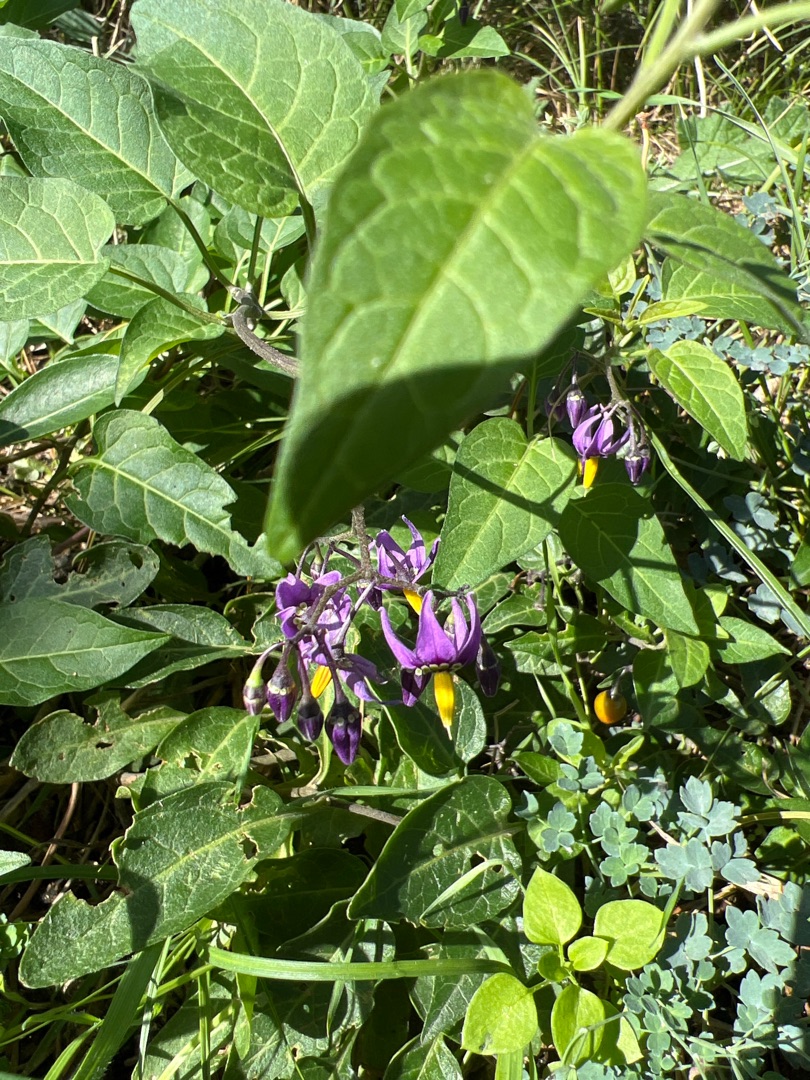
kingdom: Plantae
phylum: Tracheophyta
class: Magnoliopsida
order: Solanales
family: Solanaceae
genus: Solanum
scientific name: Solanum dulcamara
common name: Bittersød natskygge
